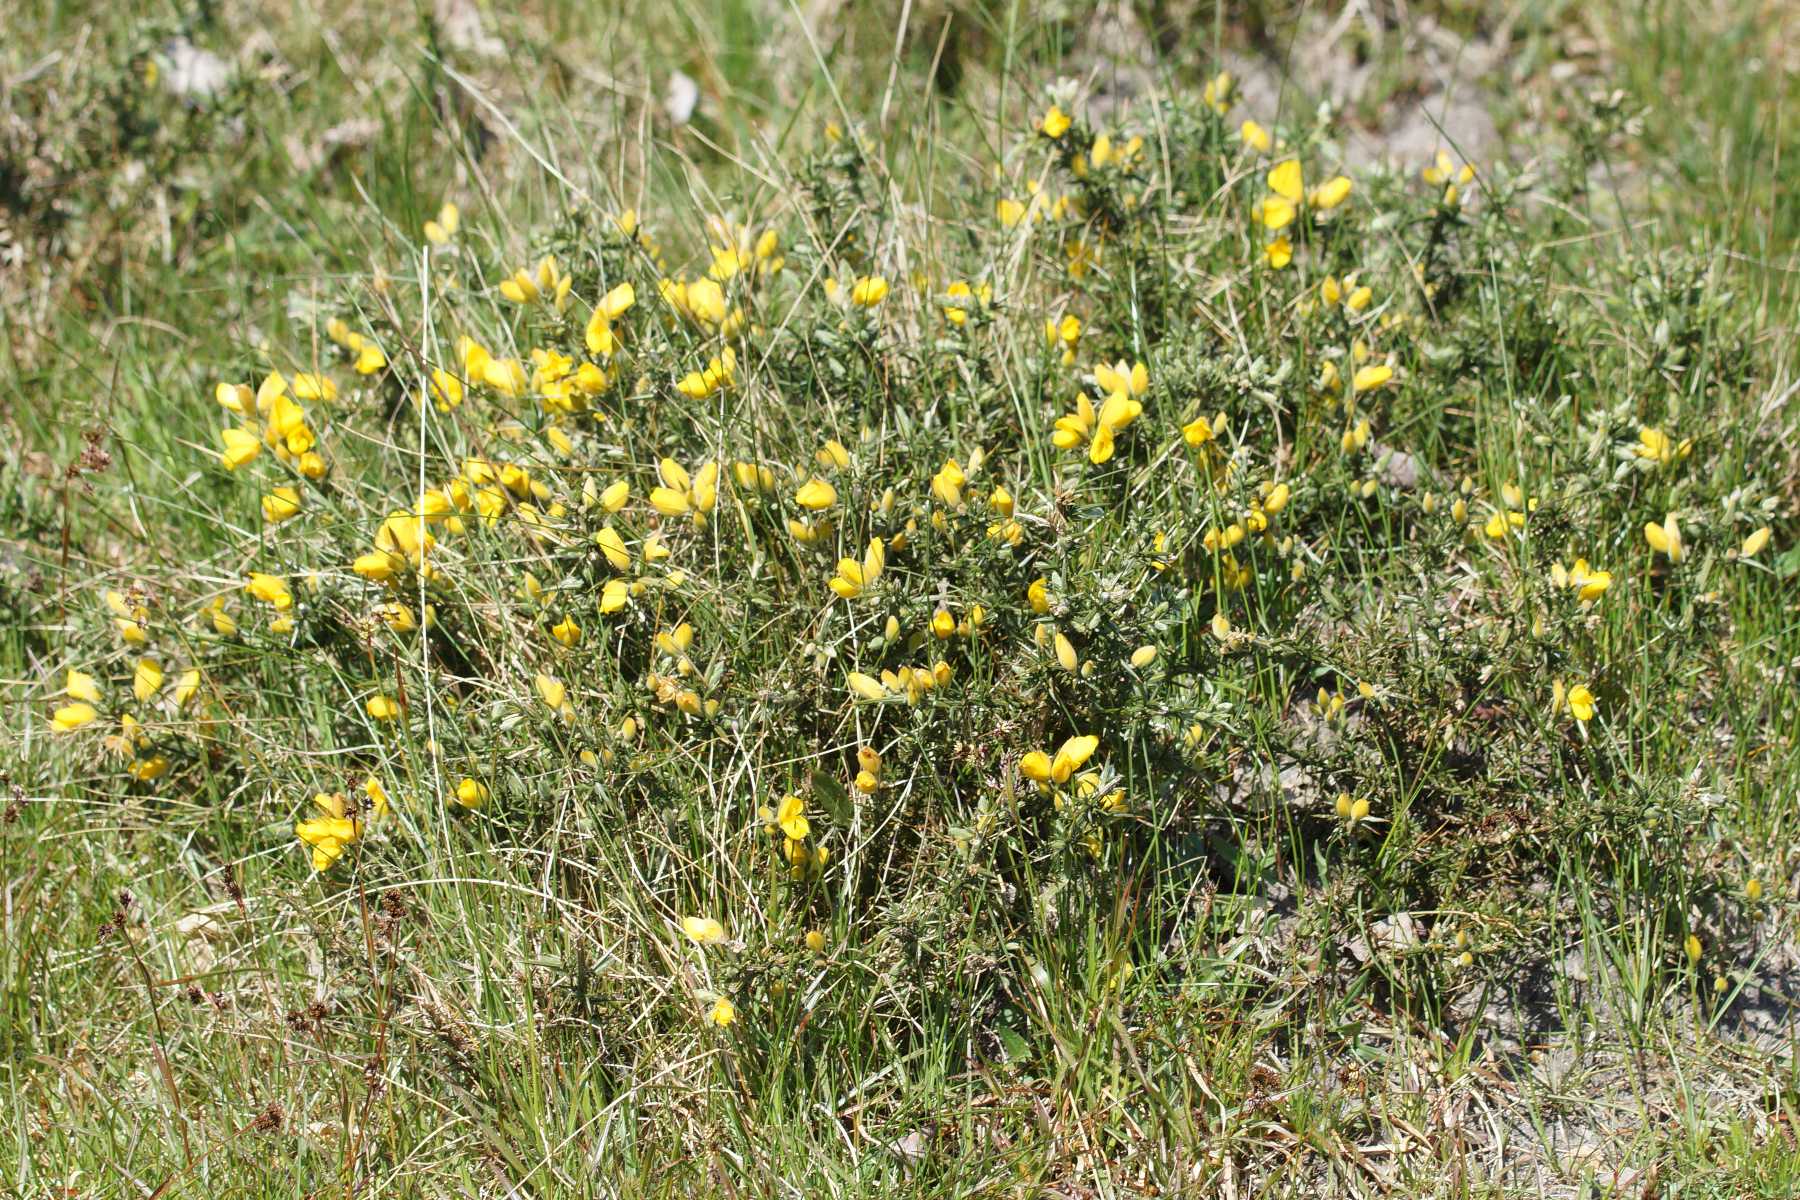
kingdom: Plantae
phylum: Tracheophyta
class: Magnoliopsida
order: Fabales
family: Fabaceae
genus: Ulex
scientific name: Ulex europaeus
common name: Tornblad
